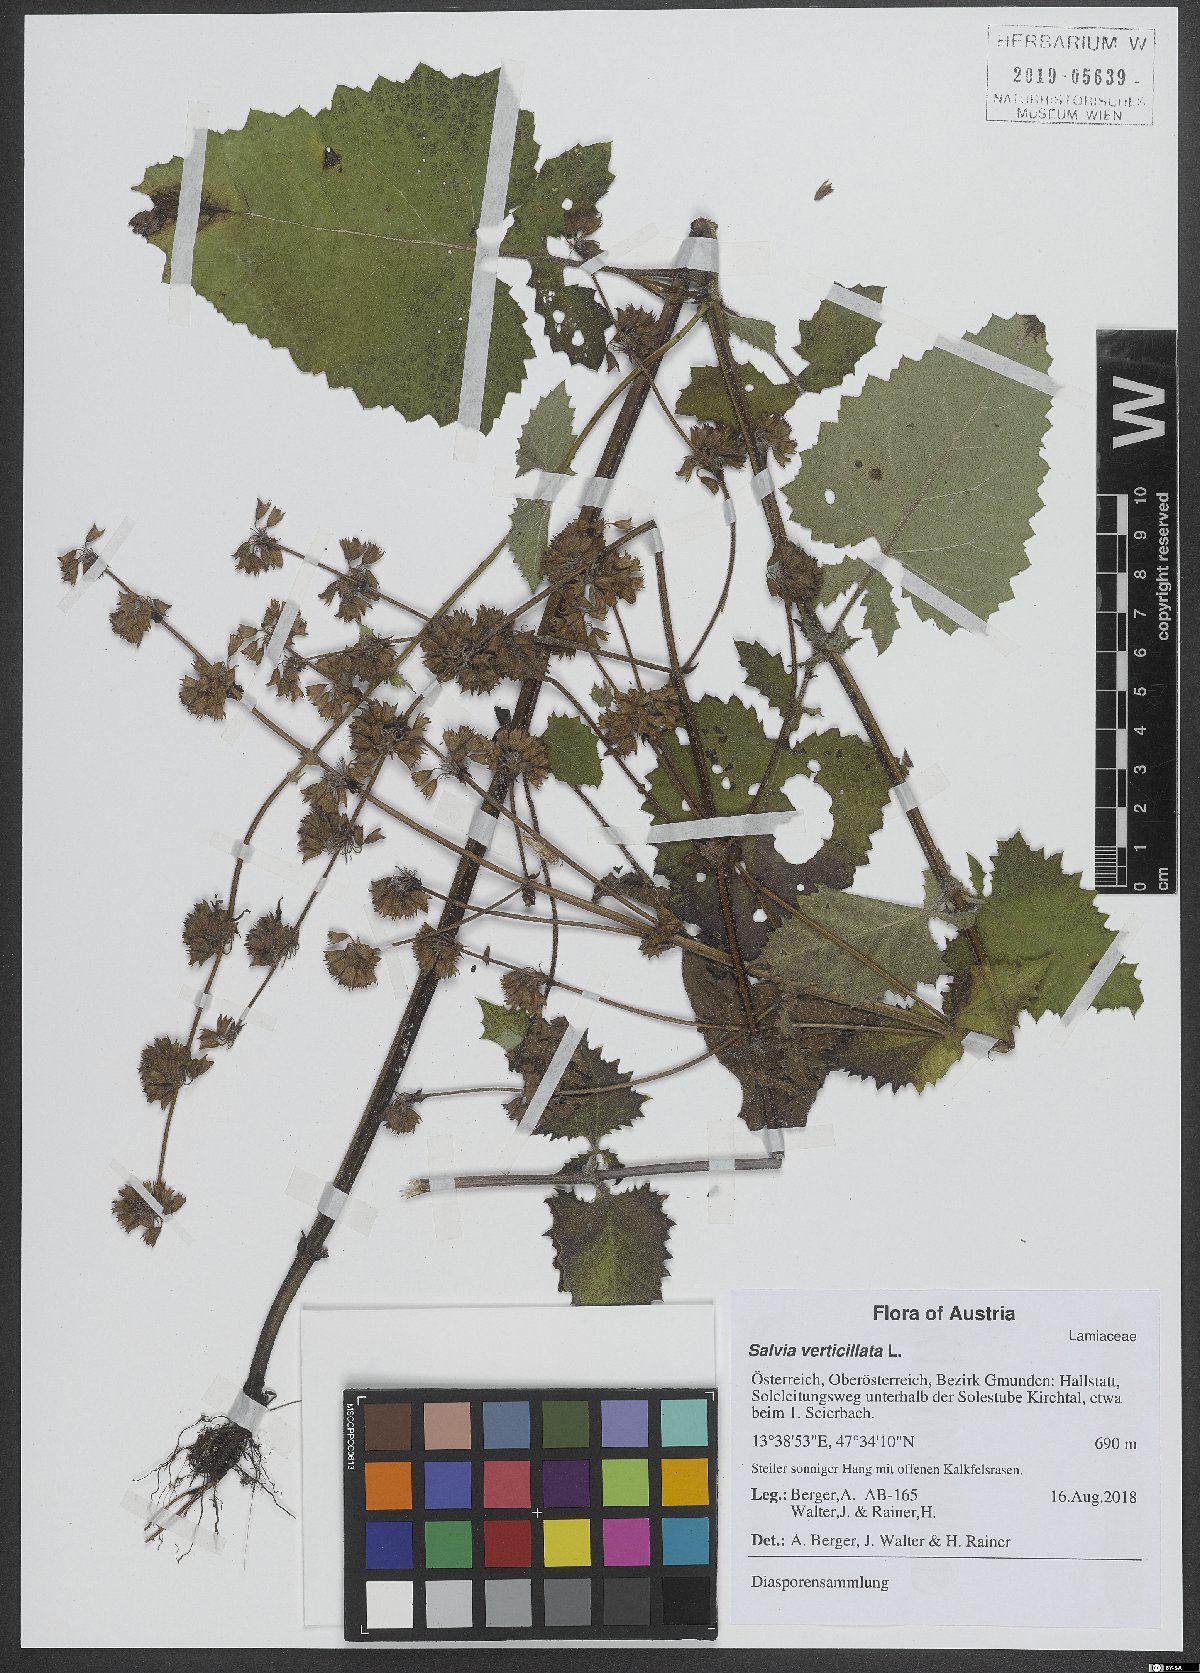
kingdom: Plantae
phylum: Tracheophyta
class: Magnoliopsida
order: Lamiales
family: Lamiaceae
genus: Salvia
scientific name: Salvia verticillata
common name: Whorled clary
